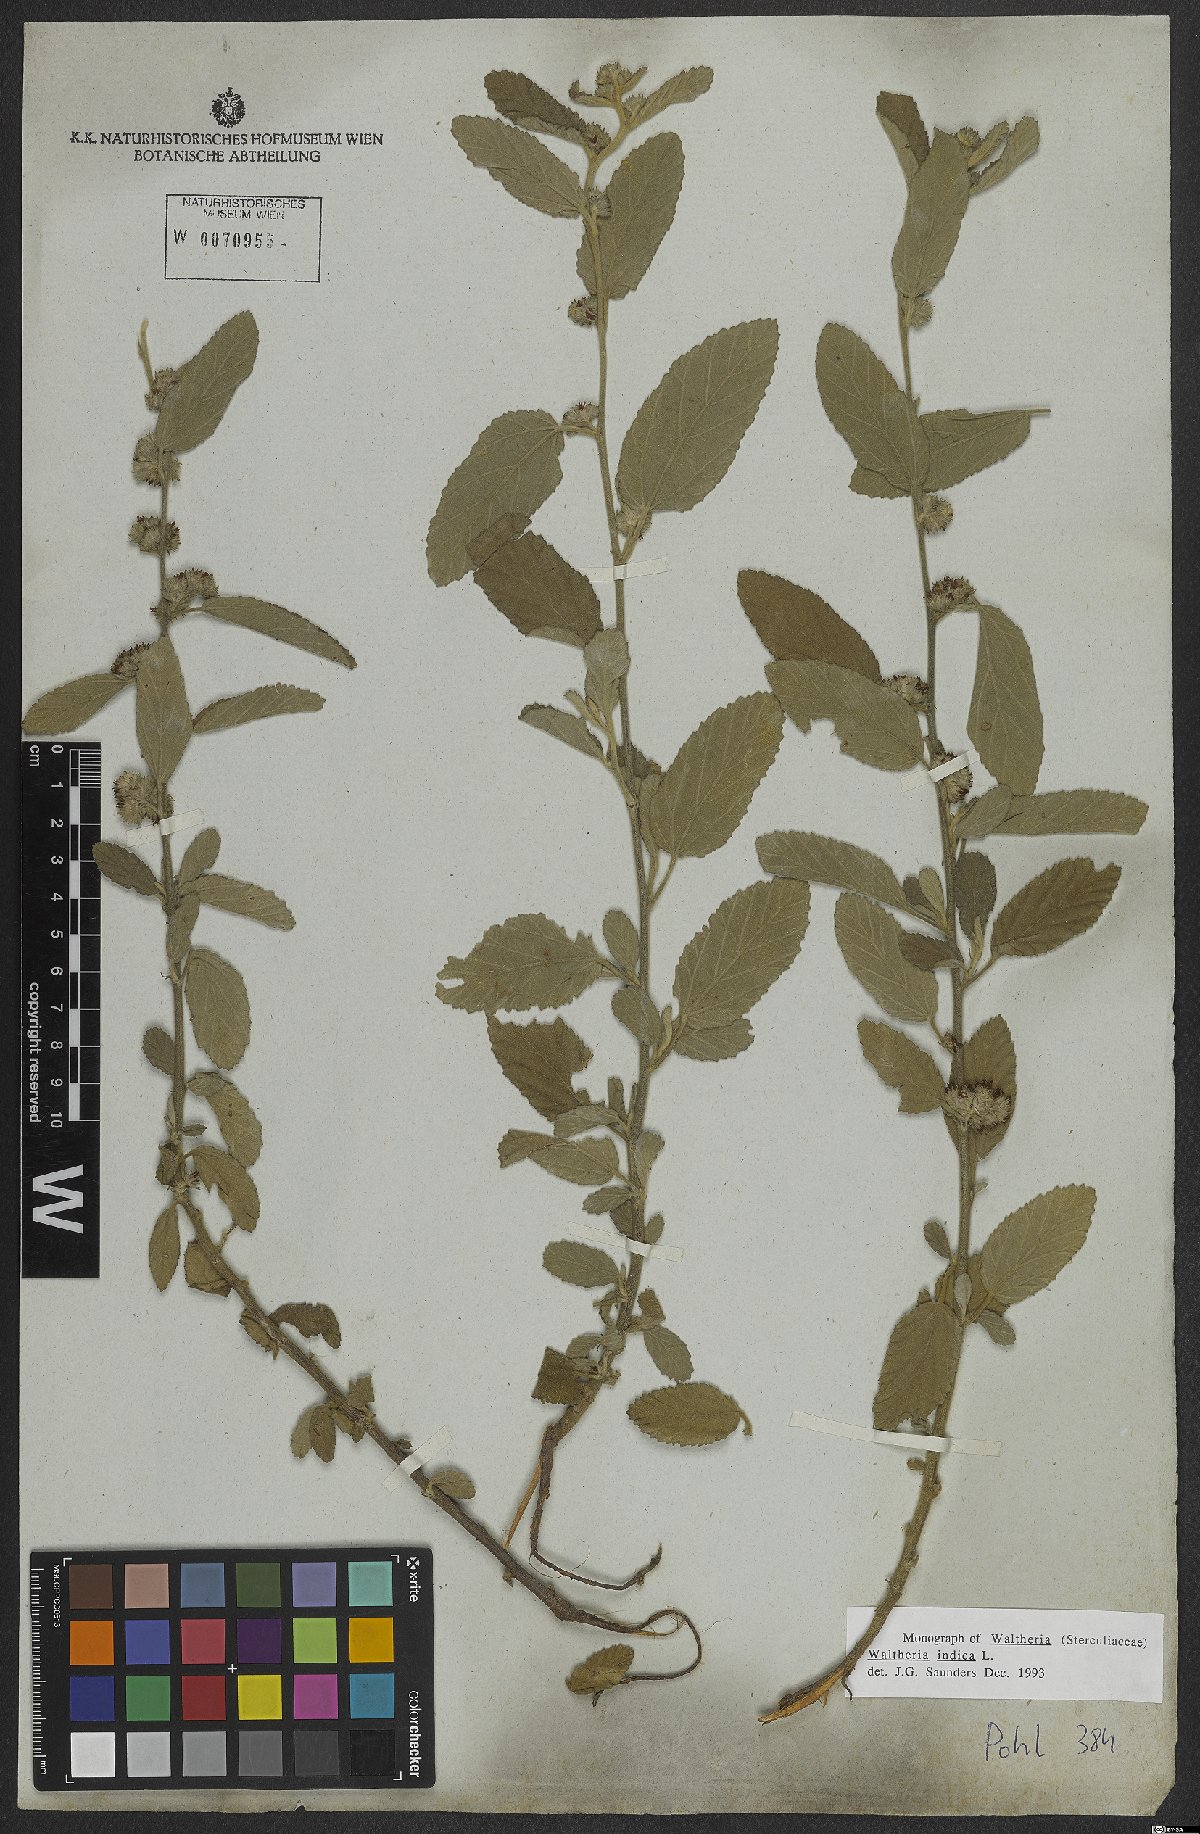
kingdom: Plantae
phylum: Tracheophyta
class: Magnoliopsida
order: Malvales
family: Malvaceae
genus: Waltheria
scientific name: Waltheria indica
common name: Leather-coat
